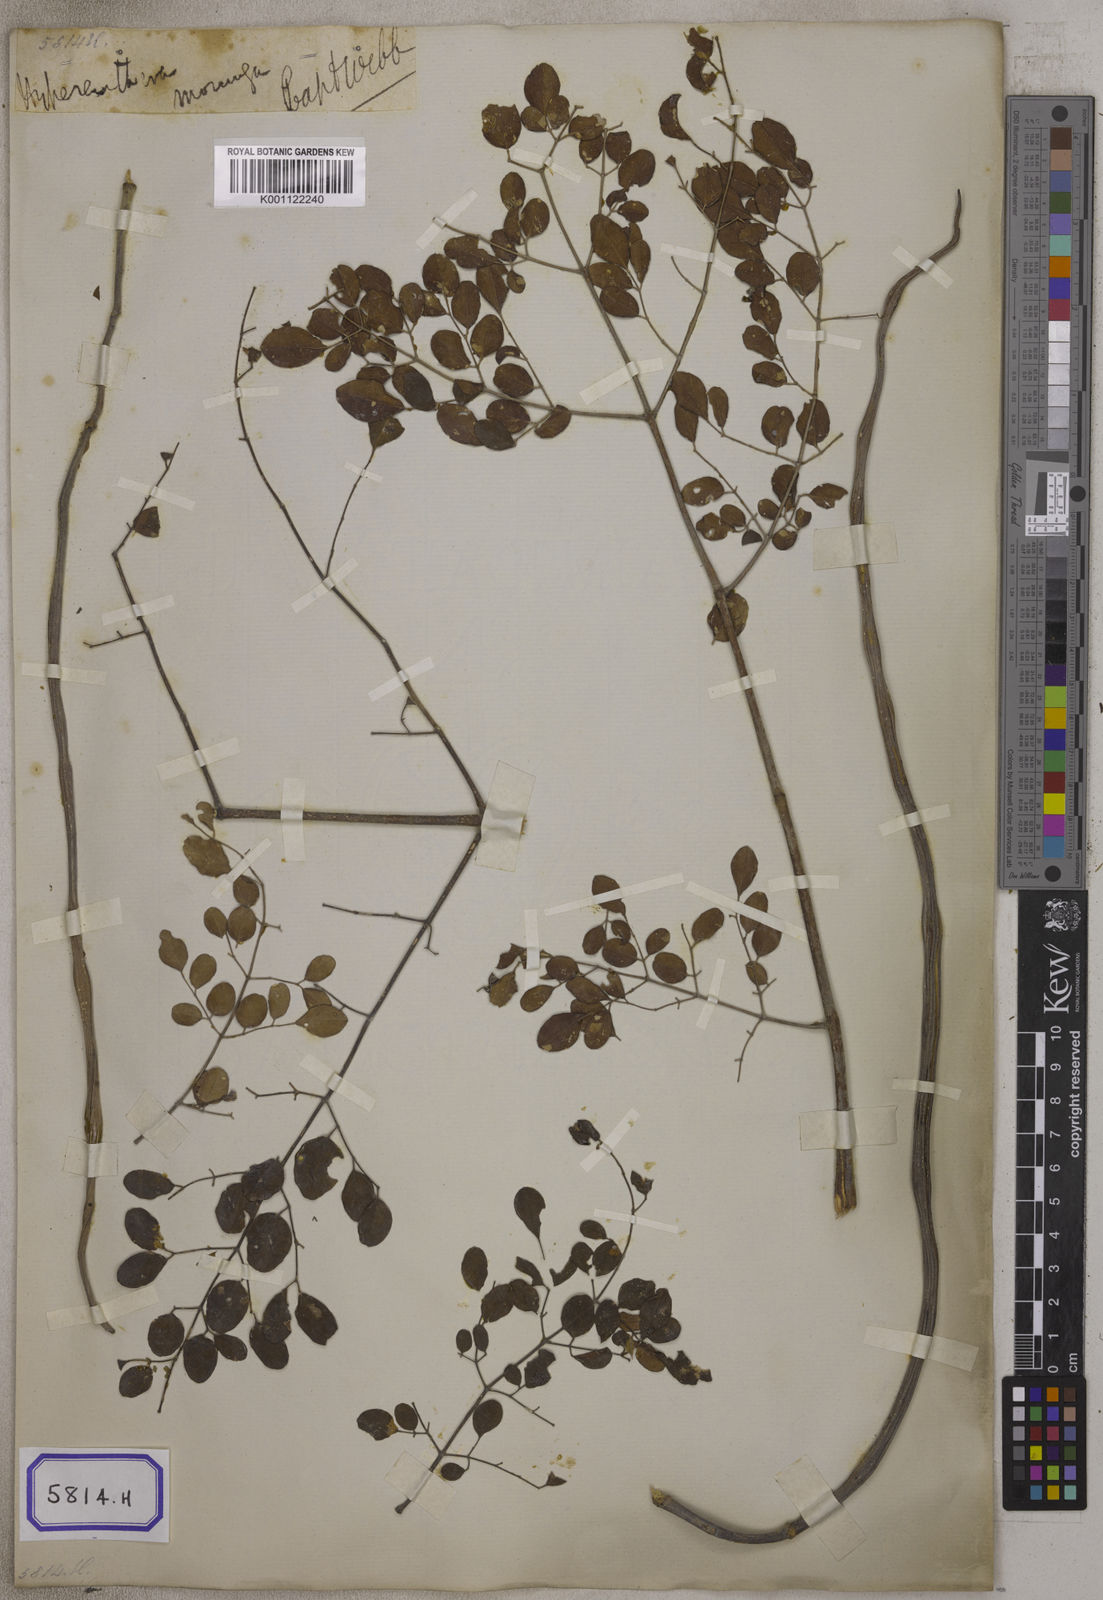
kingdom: Plantae
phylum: Tracheophyta
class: Magnoliopsida
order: Brassicales
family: Moringaceae
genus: Moringa
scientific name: Moringa oleifera
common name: Horseradish-tree
